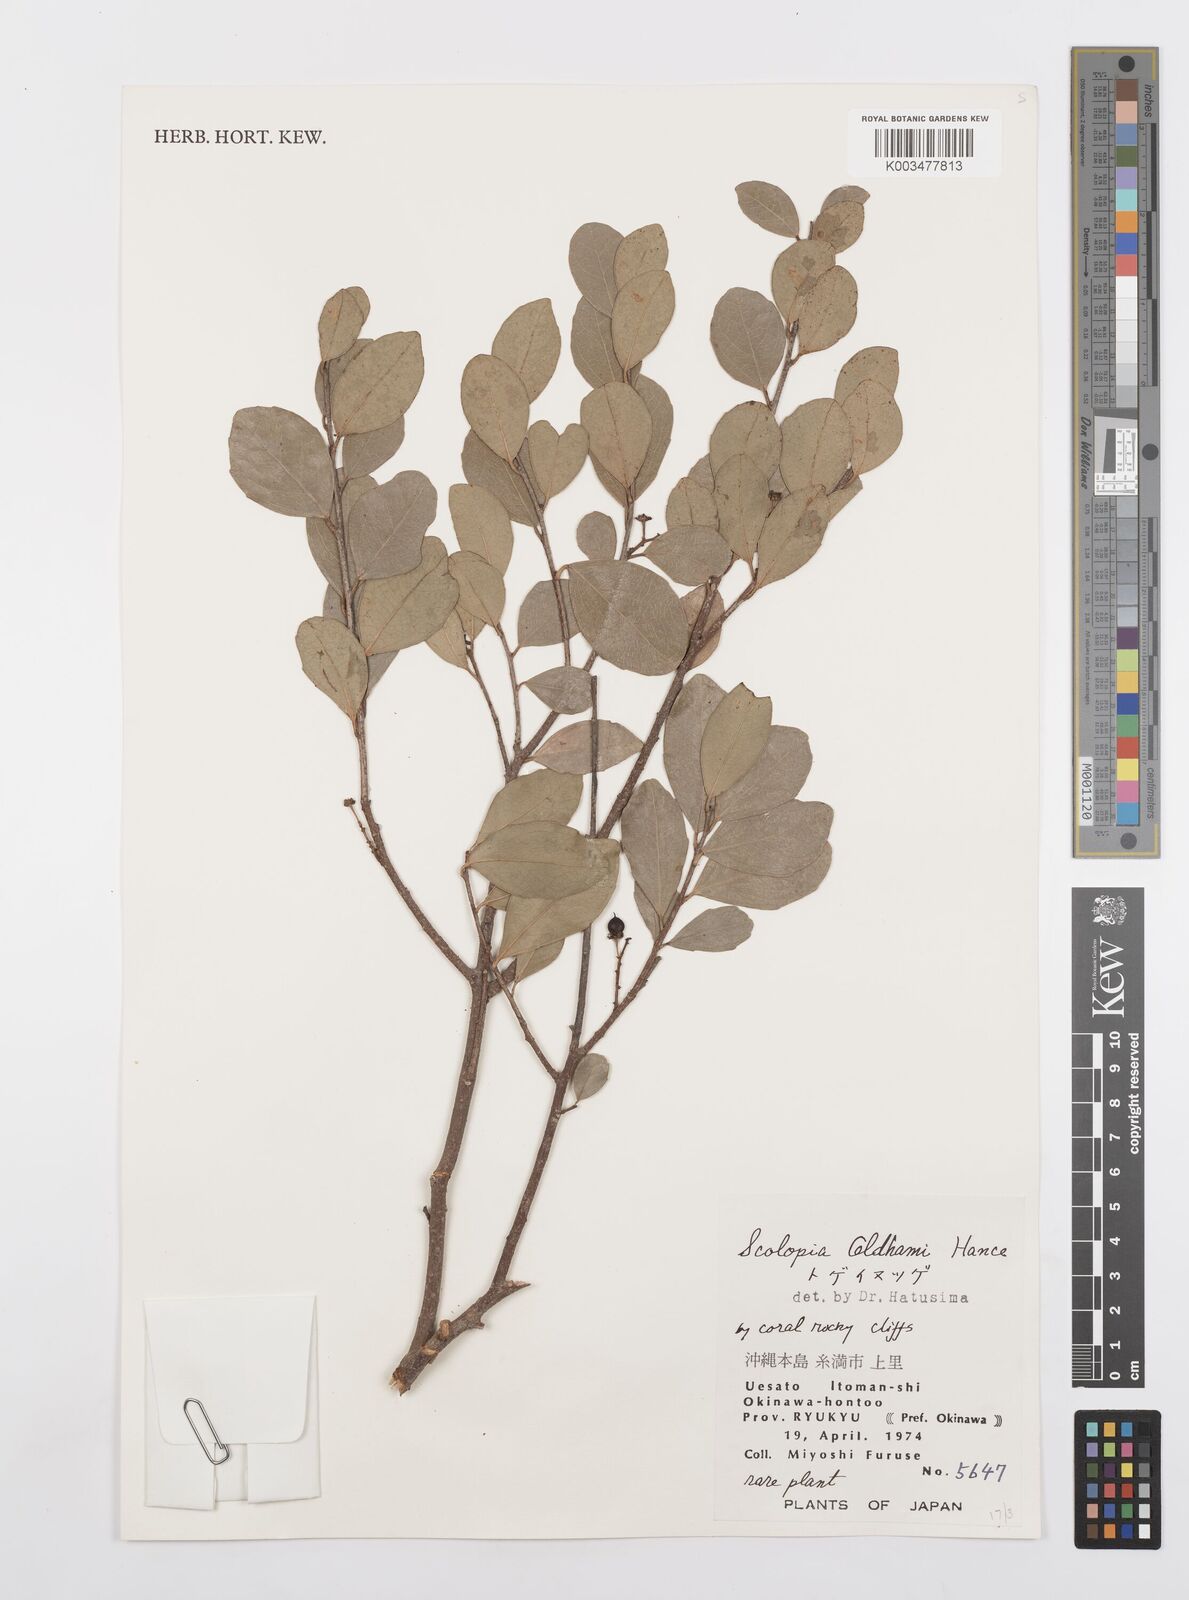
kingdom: Plantae
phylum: Tracheophyta
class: Magnoliopsida
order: Malpighiales
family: Salicaceae
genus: Scolopia
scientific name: Scolopia oldhamii
